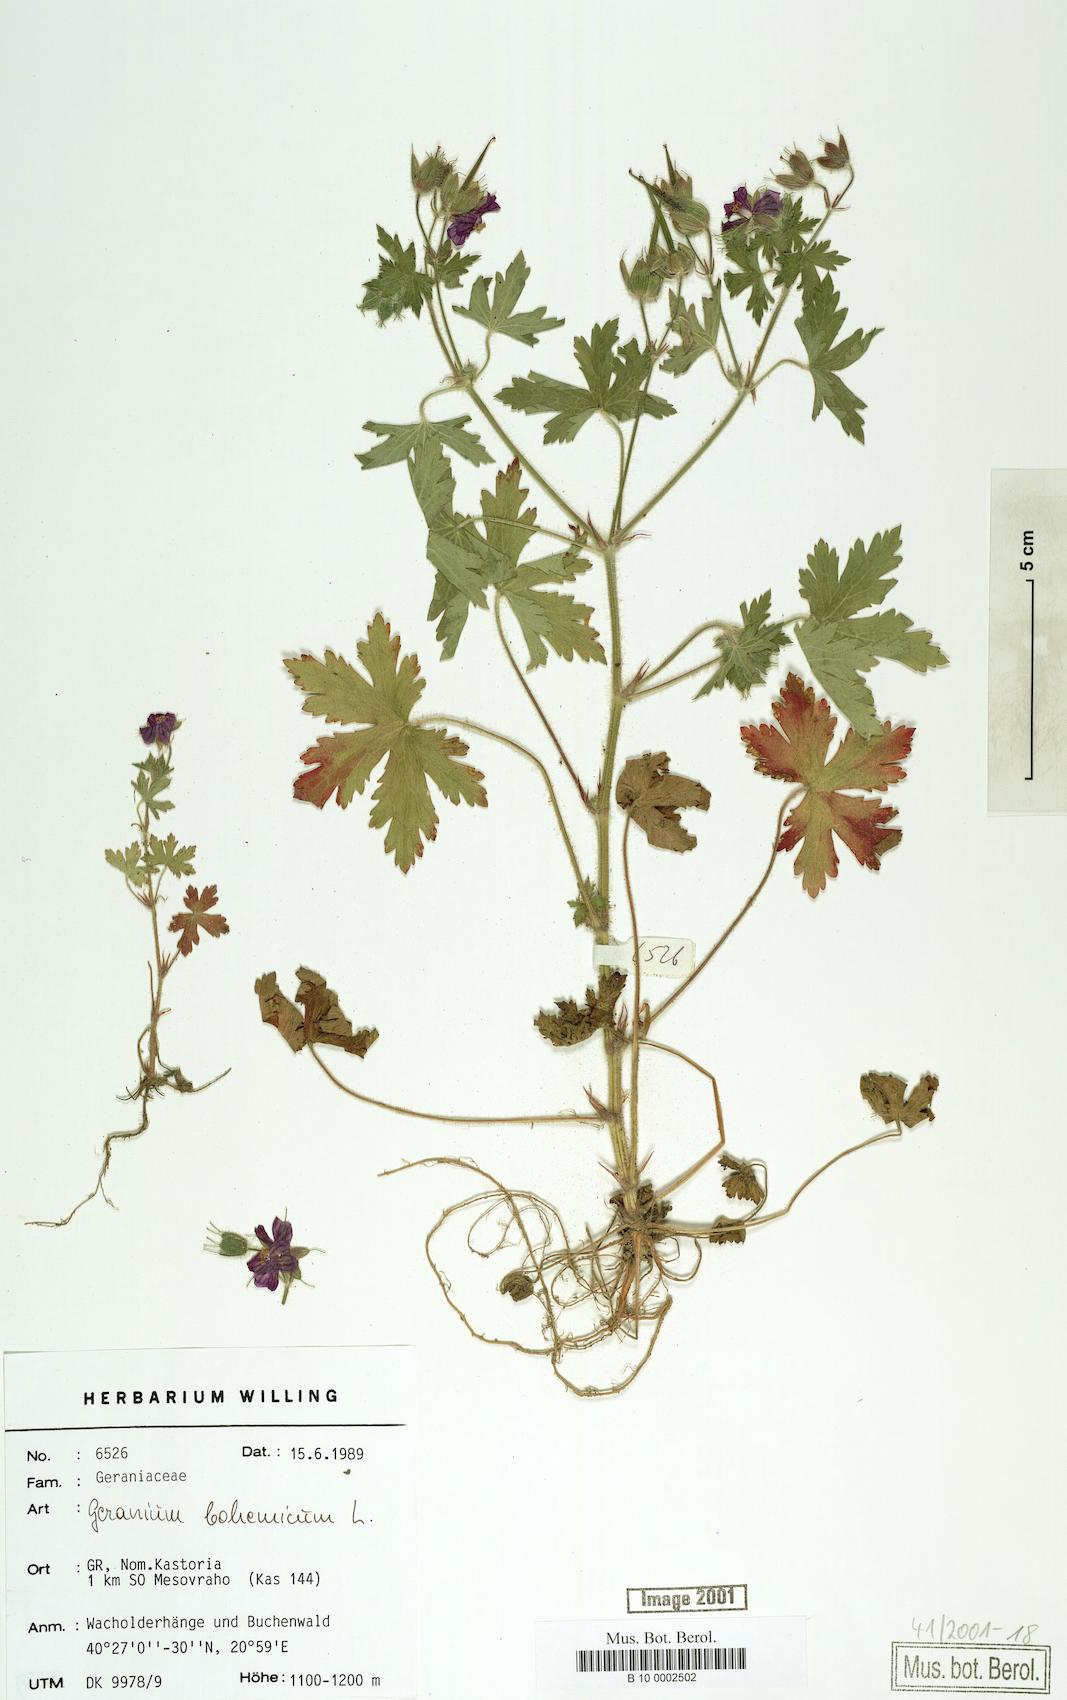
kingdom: Plantae
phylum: Tracheophyta
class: Magnoliopsida
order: Geraniales
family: Geraniaceae
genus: Geranium
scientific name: Geranium bohemicum
